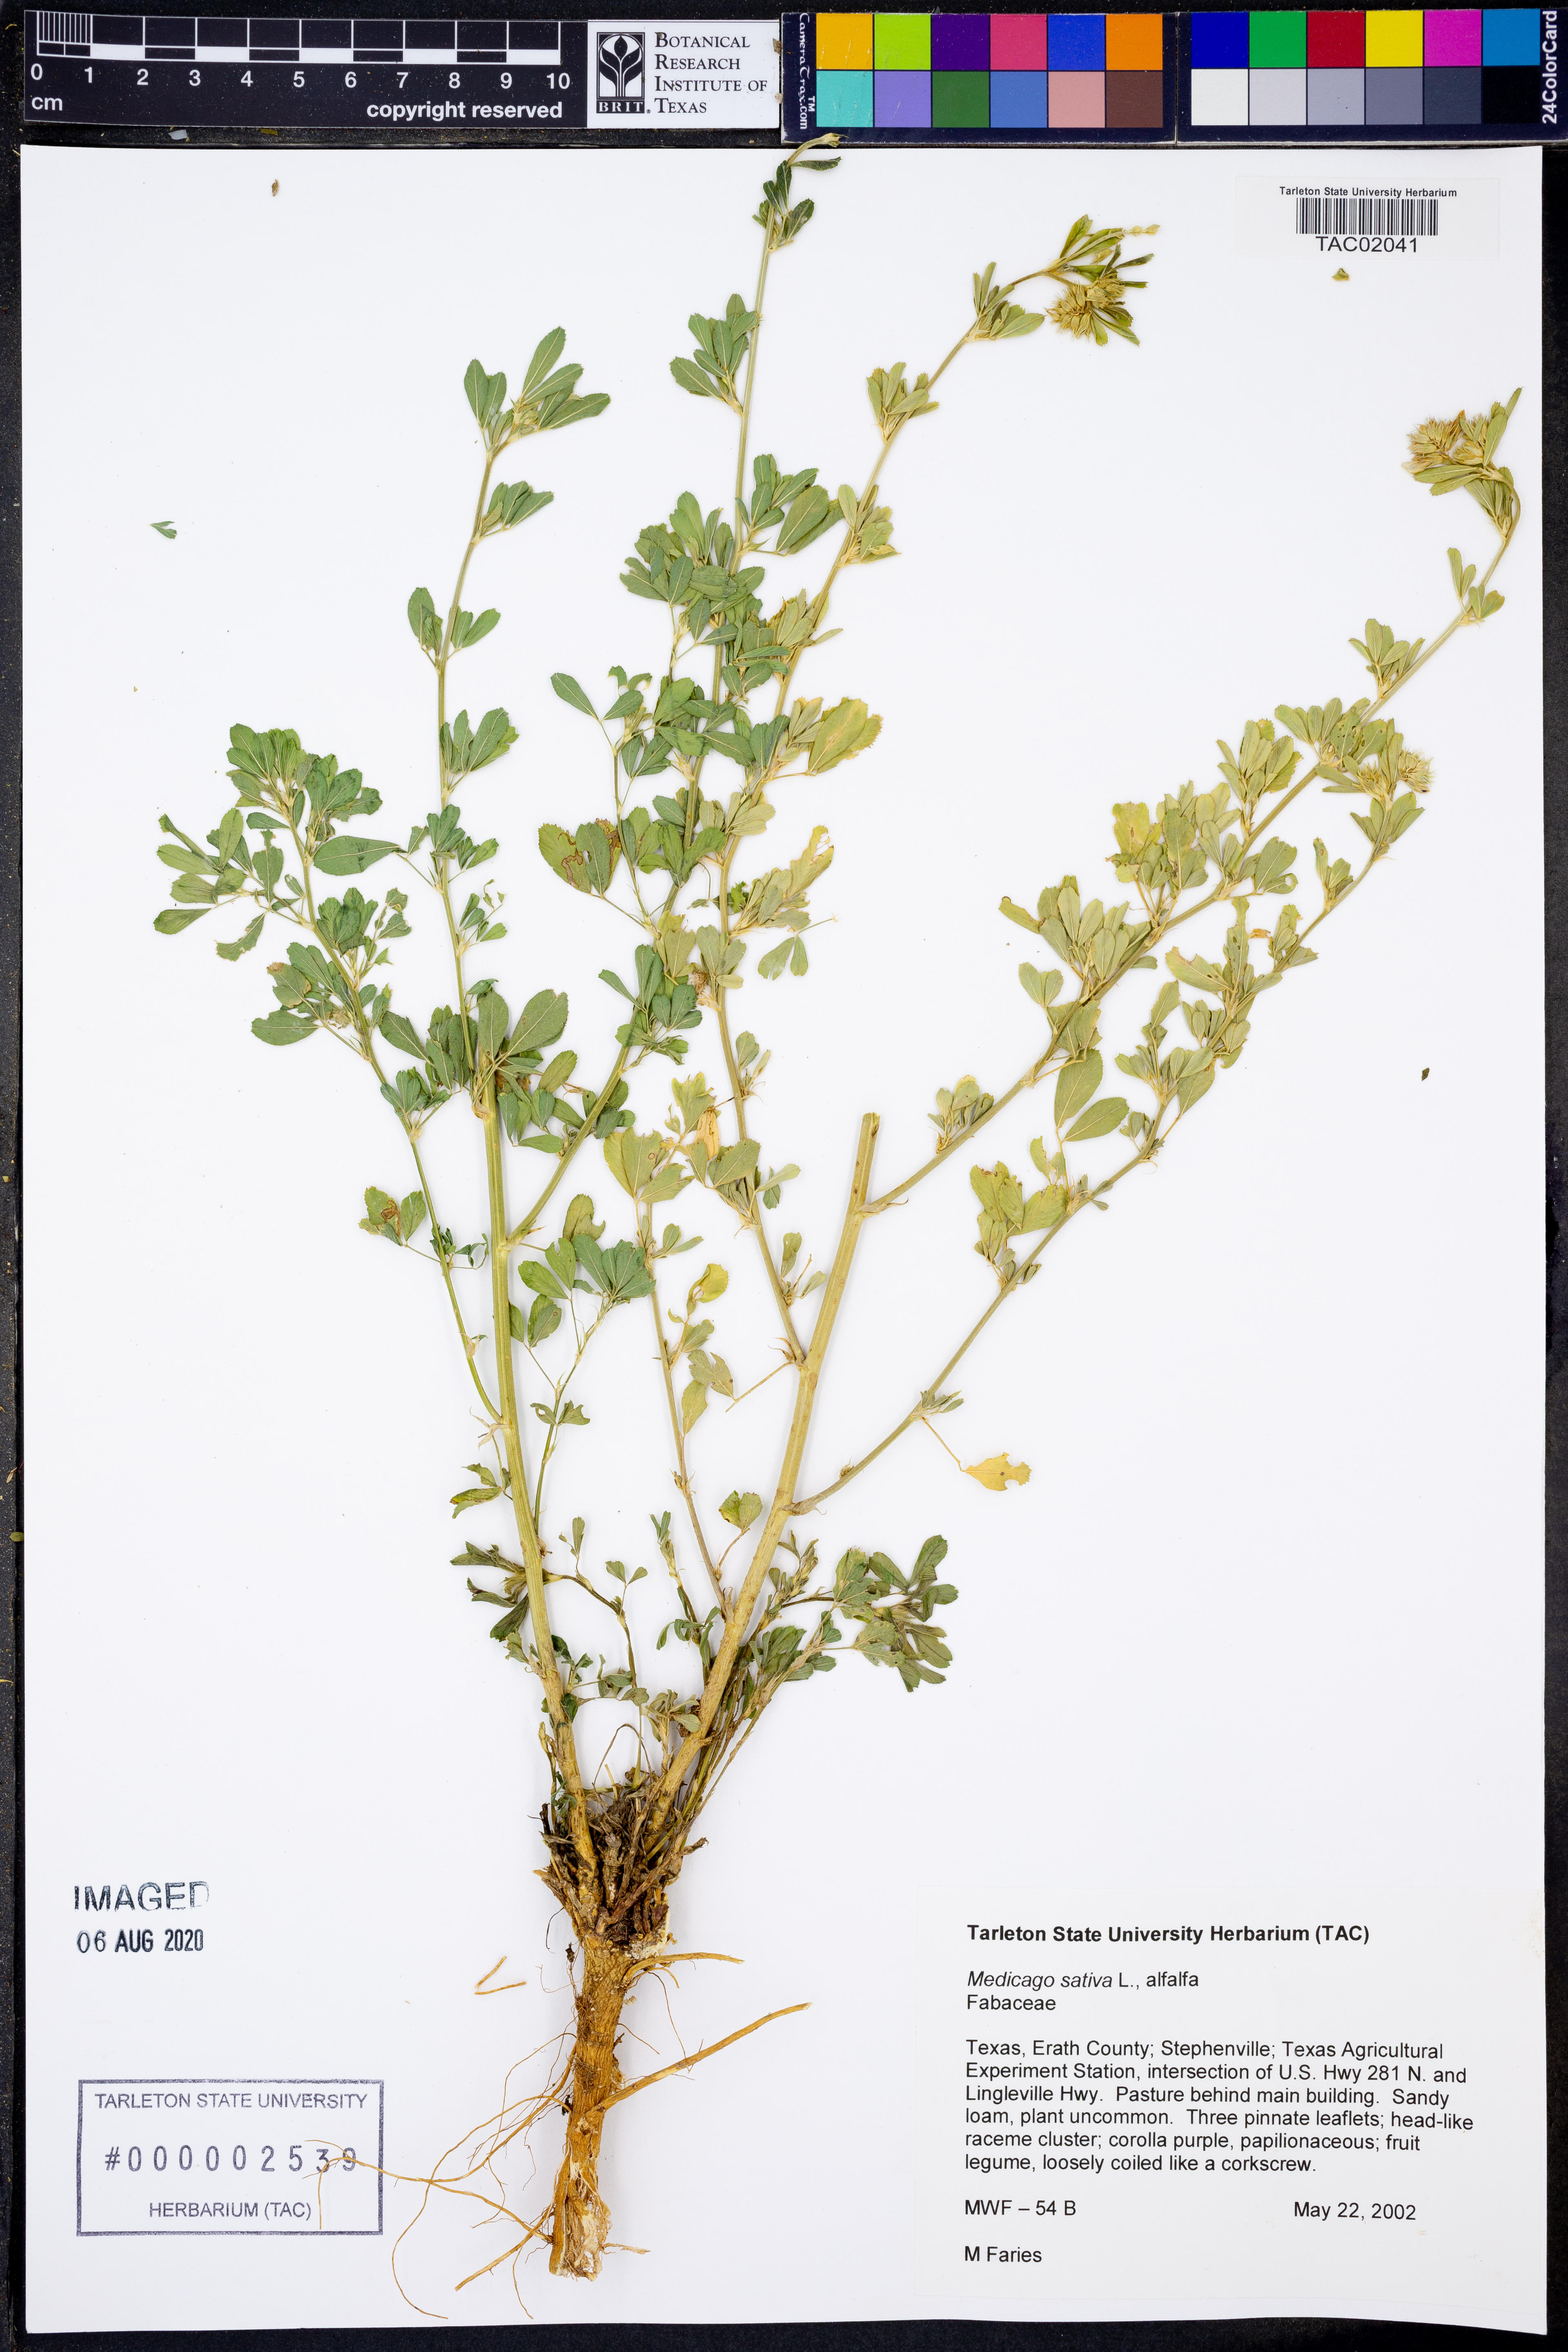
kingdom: Plantae
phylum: Tracheophyta
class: Magnoliopsida
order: Fabales
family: Fabaceae
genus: Medicago
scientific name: Medicago sativa
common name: Alfalfa
